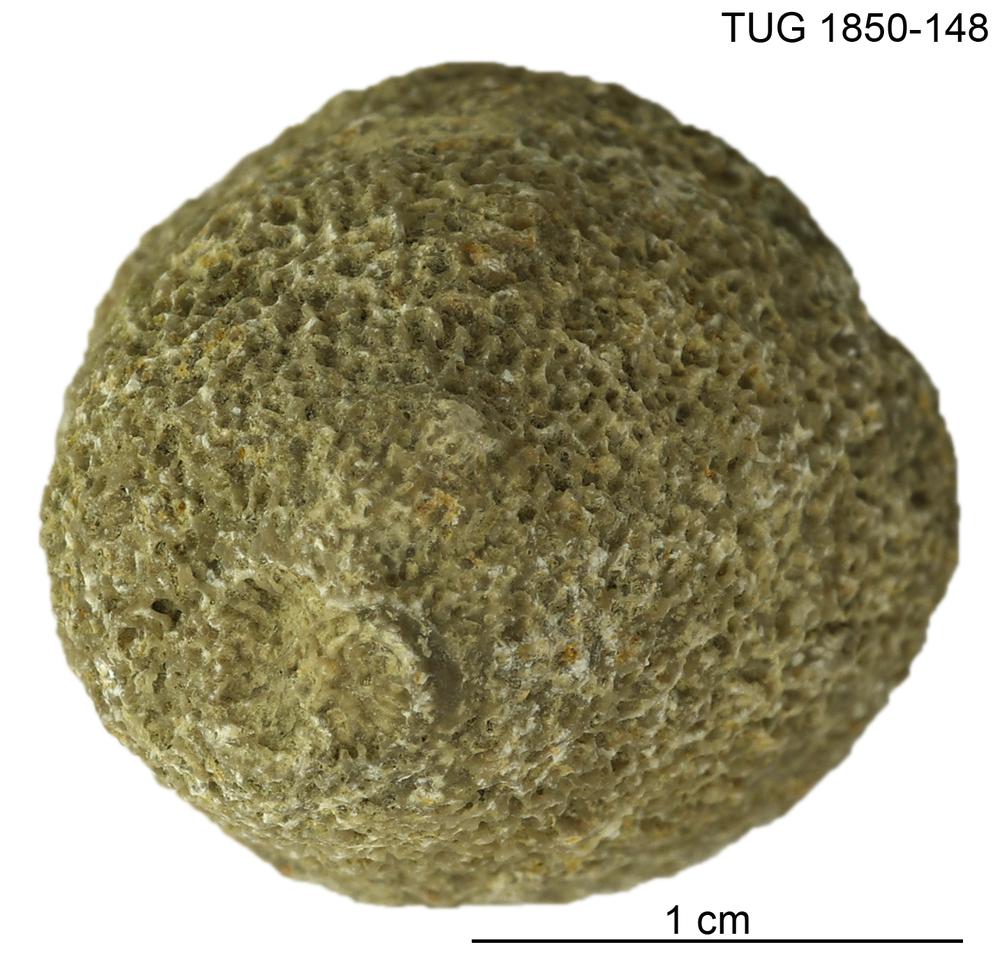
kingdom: Animalia
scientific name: Animalia
